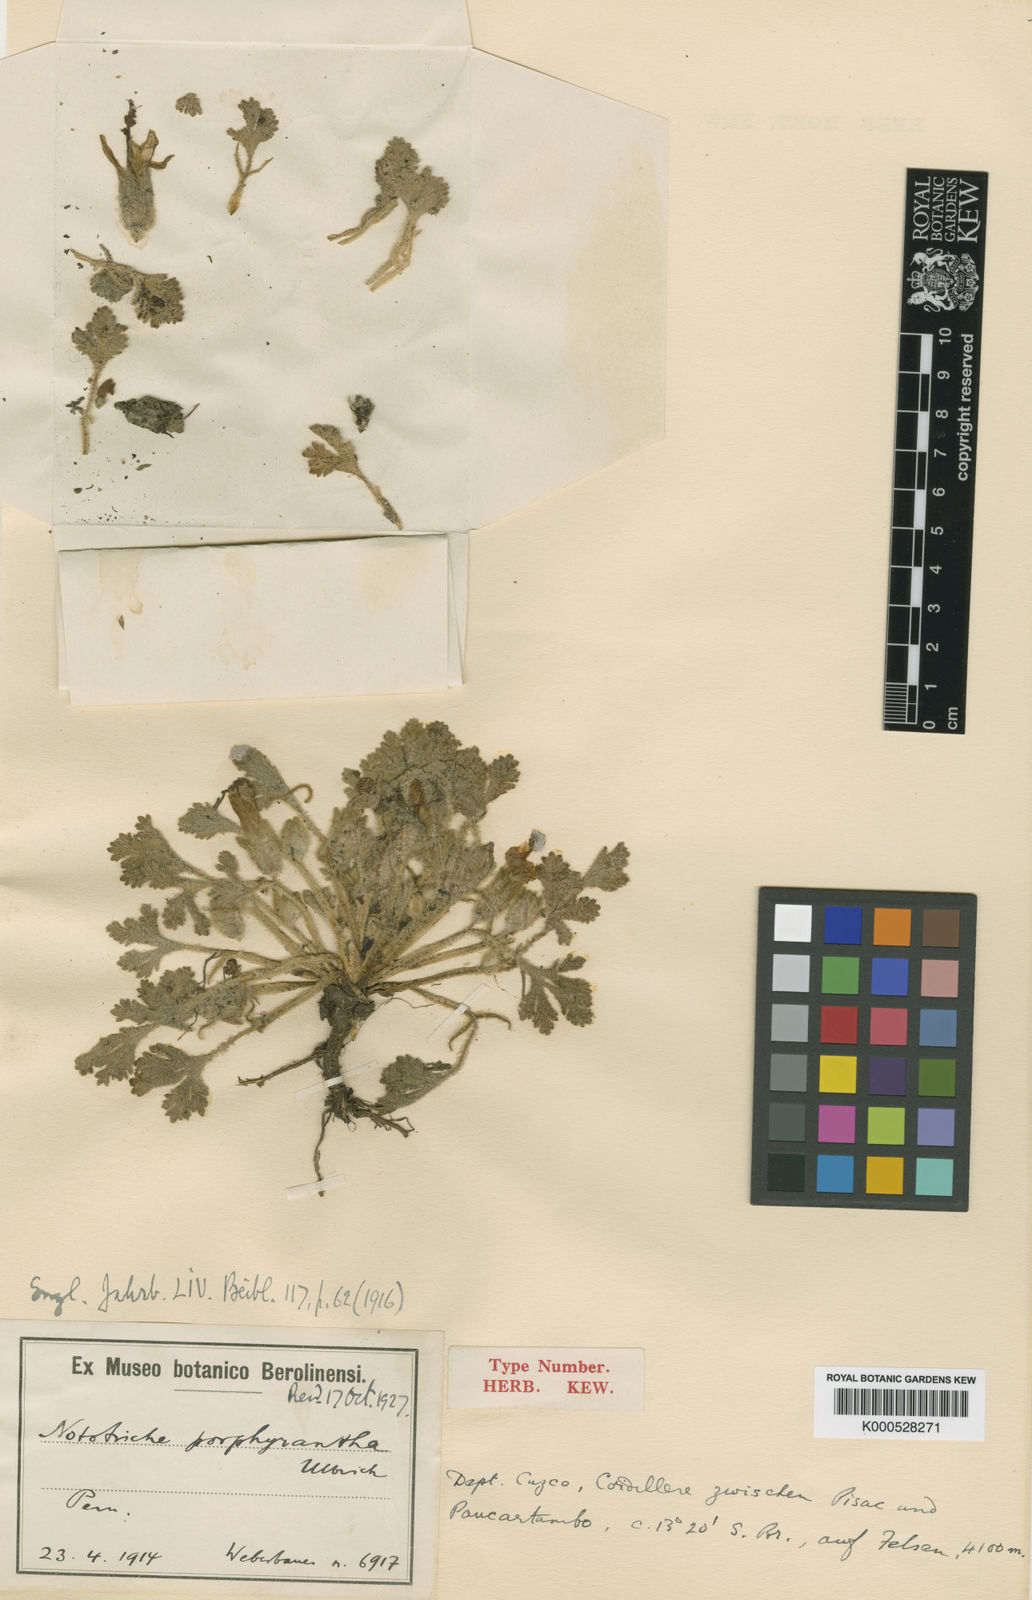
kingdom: Plantae
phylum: Tracheophyta
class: Magnoliopsida
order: Malvales
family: Malvaceae
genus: Nototriche
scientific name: Nototriche flabellata
